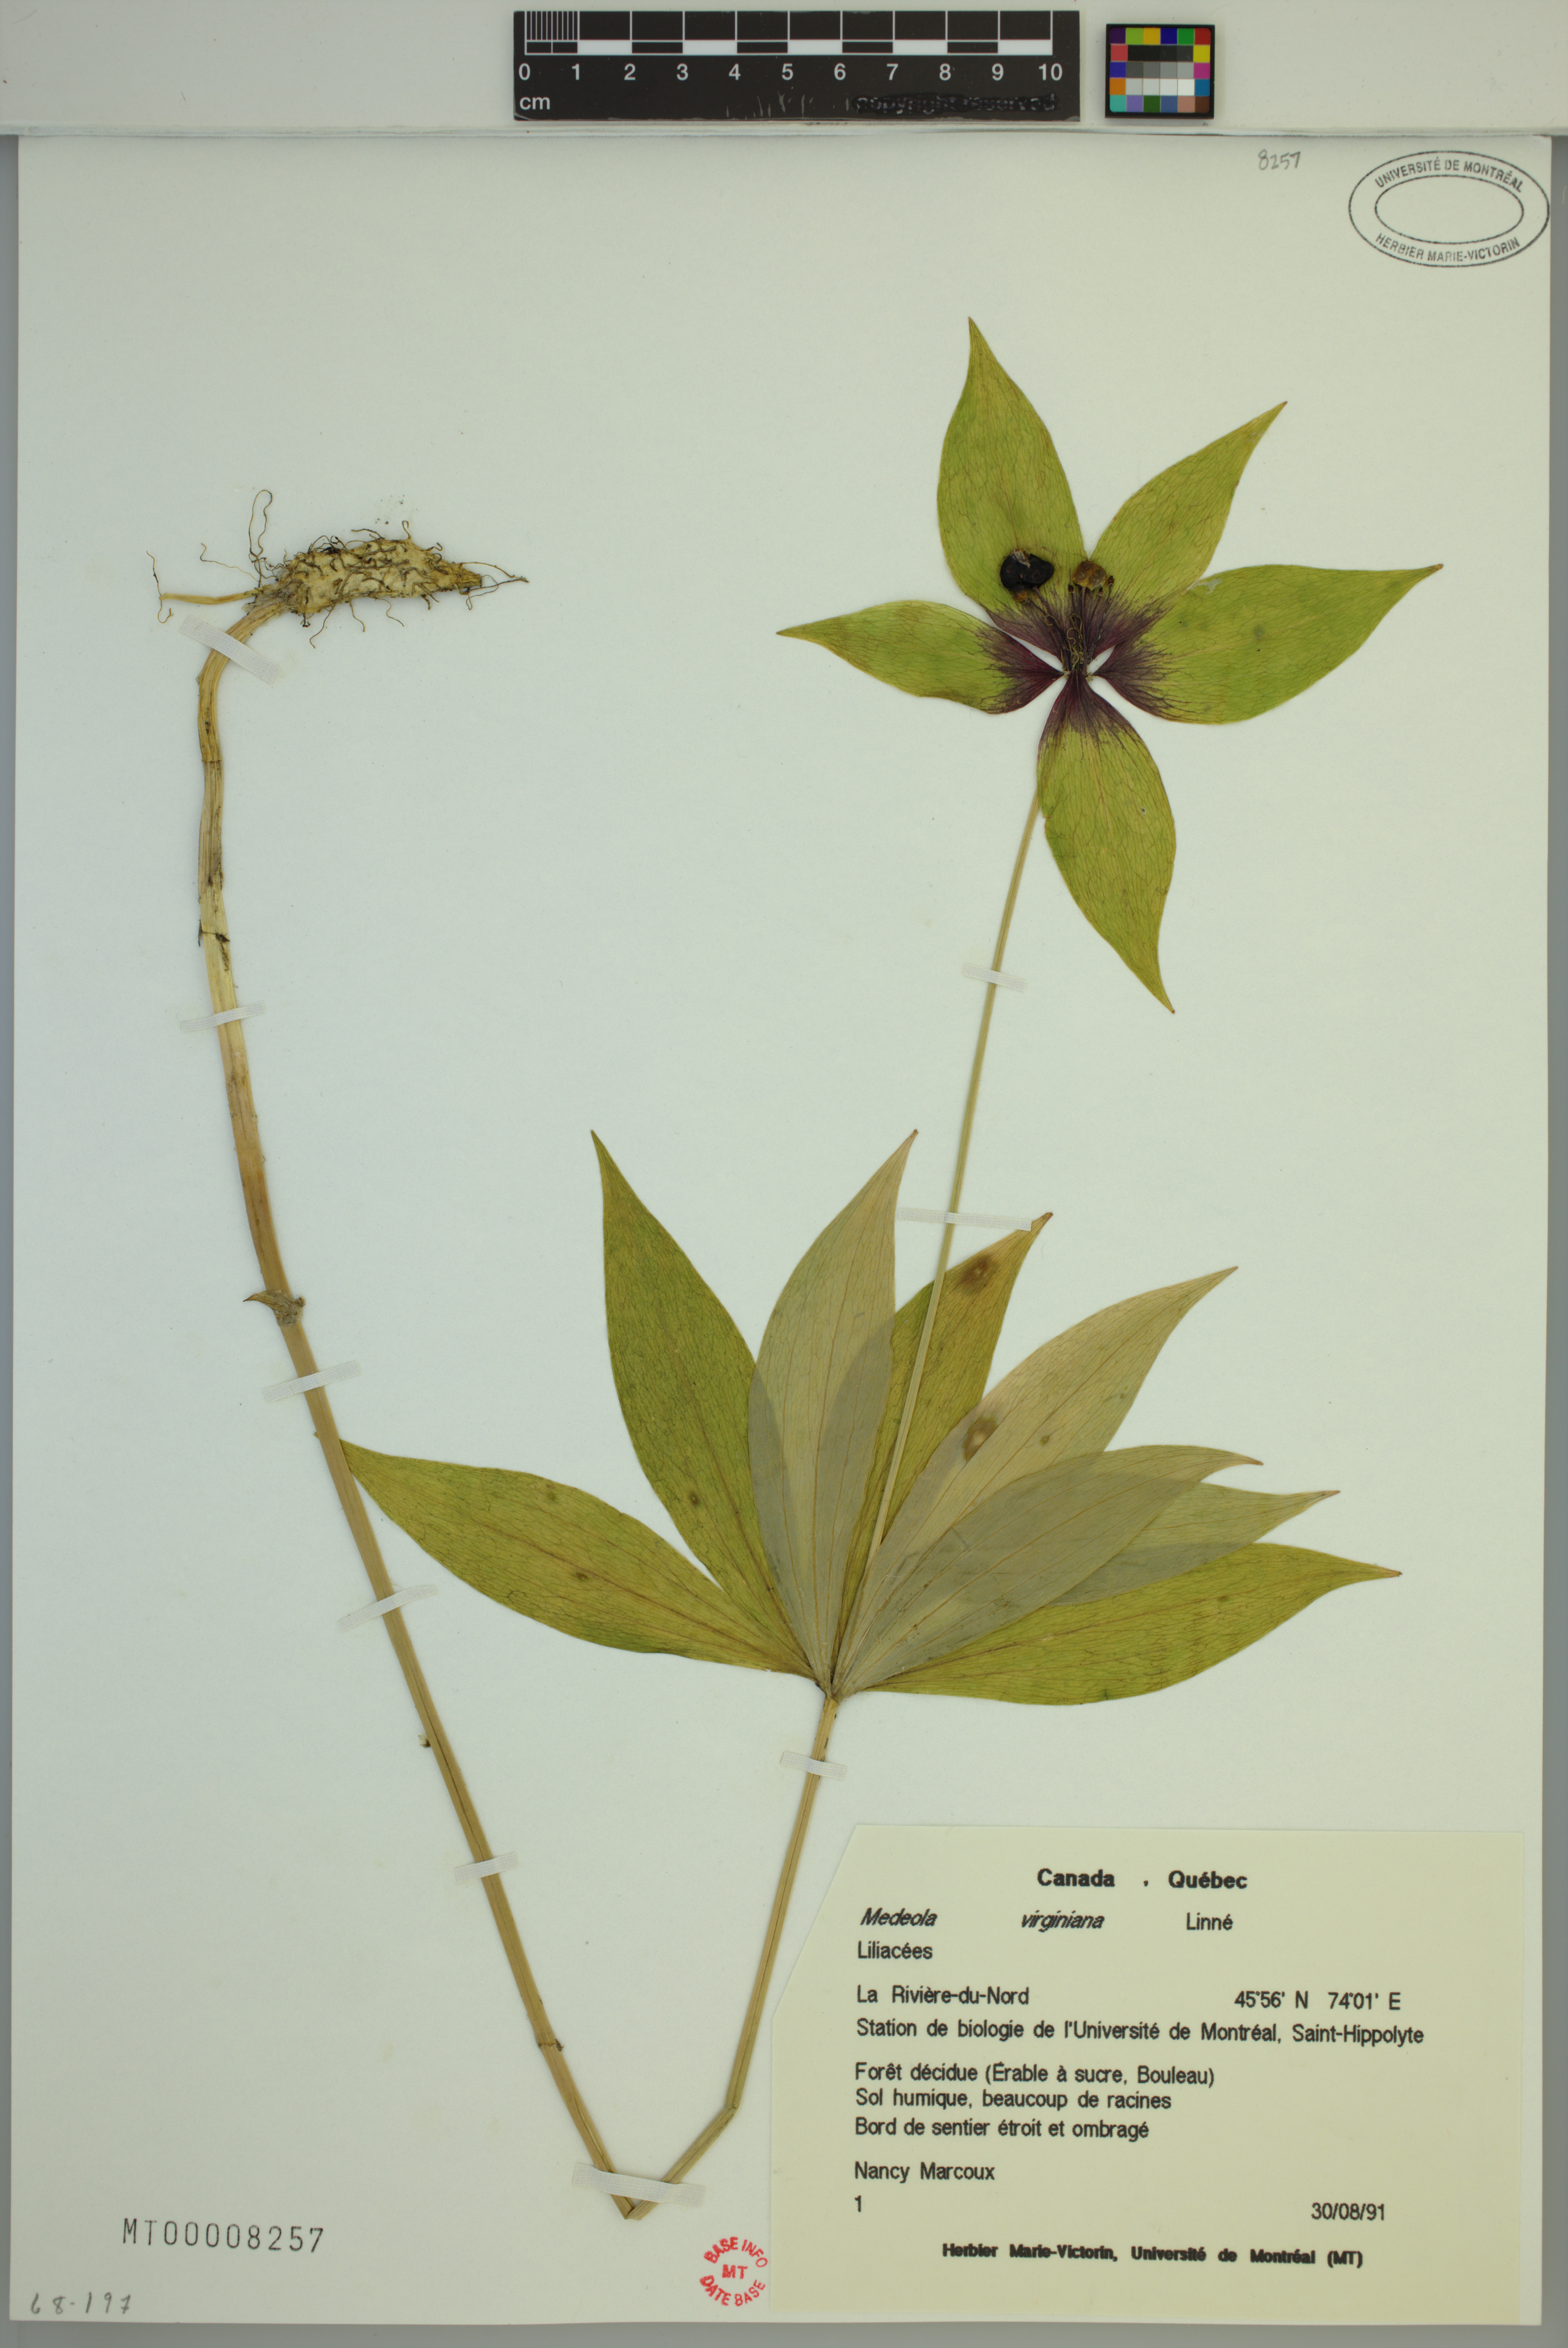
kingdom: Plantae
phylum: Tracheophyta
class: Liliopsida
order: Liliales
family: Liliaceae
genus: Medeola
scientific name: Medeola virginiana
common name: Indian cucumber-root
